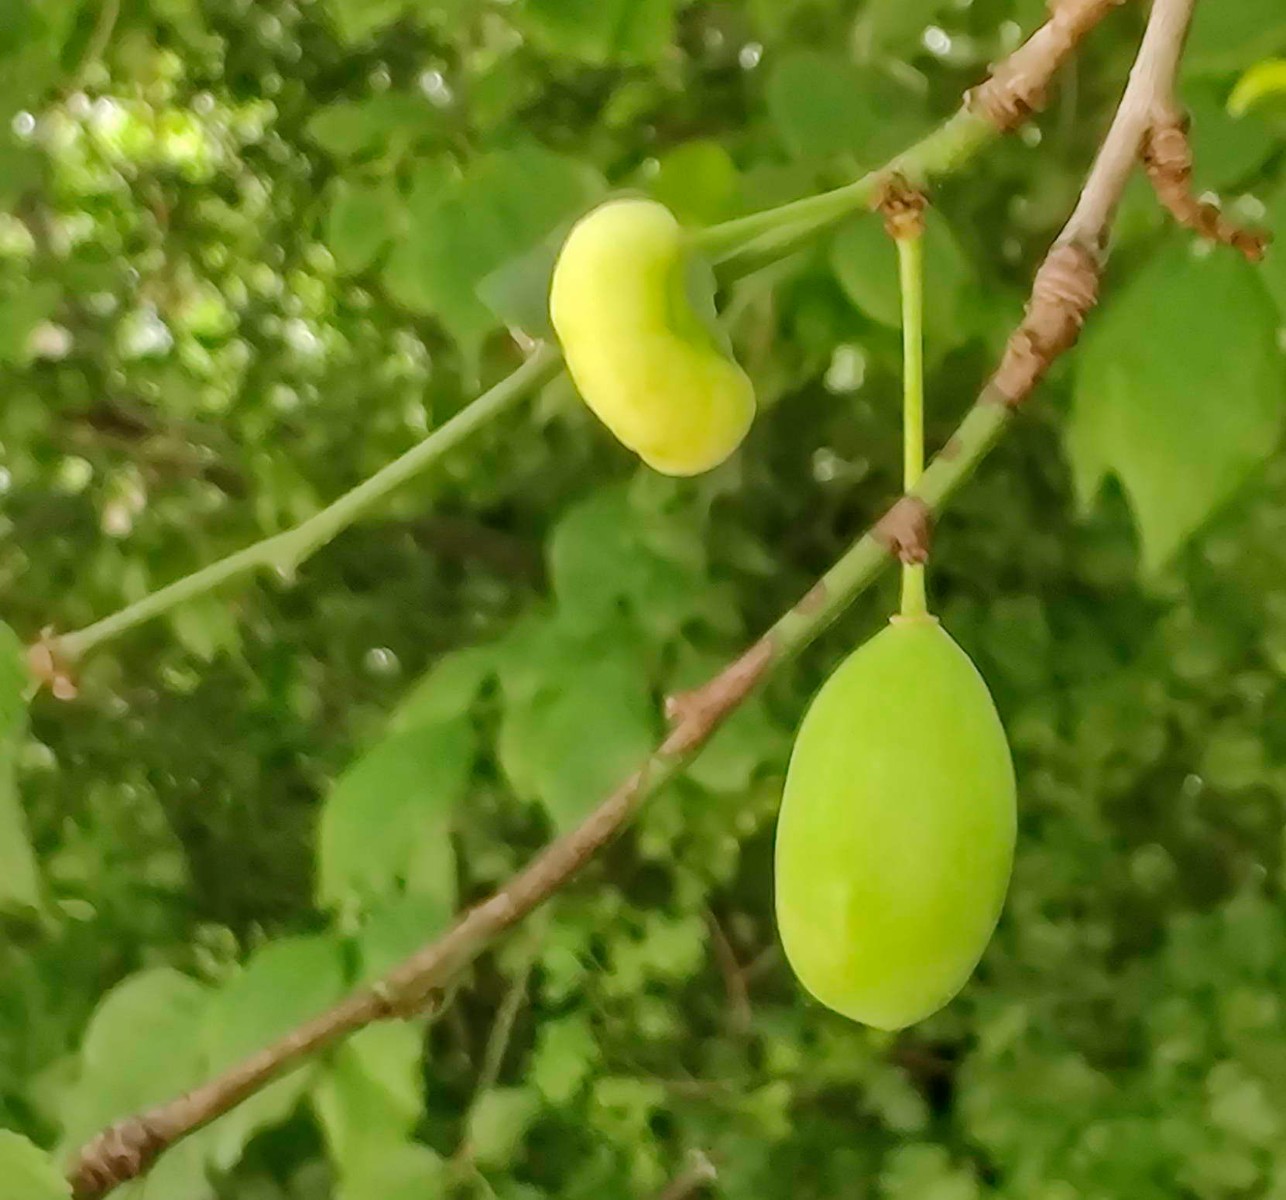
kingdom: Fungi
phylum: Ascomycota
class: Taphrinomycetes
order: Taphrinales
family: Taphrinaceae
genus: Taphrina
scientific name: Taphrina pruni
